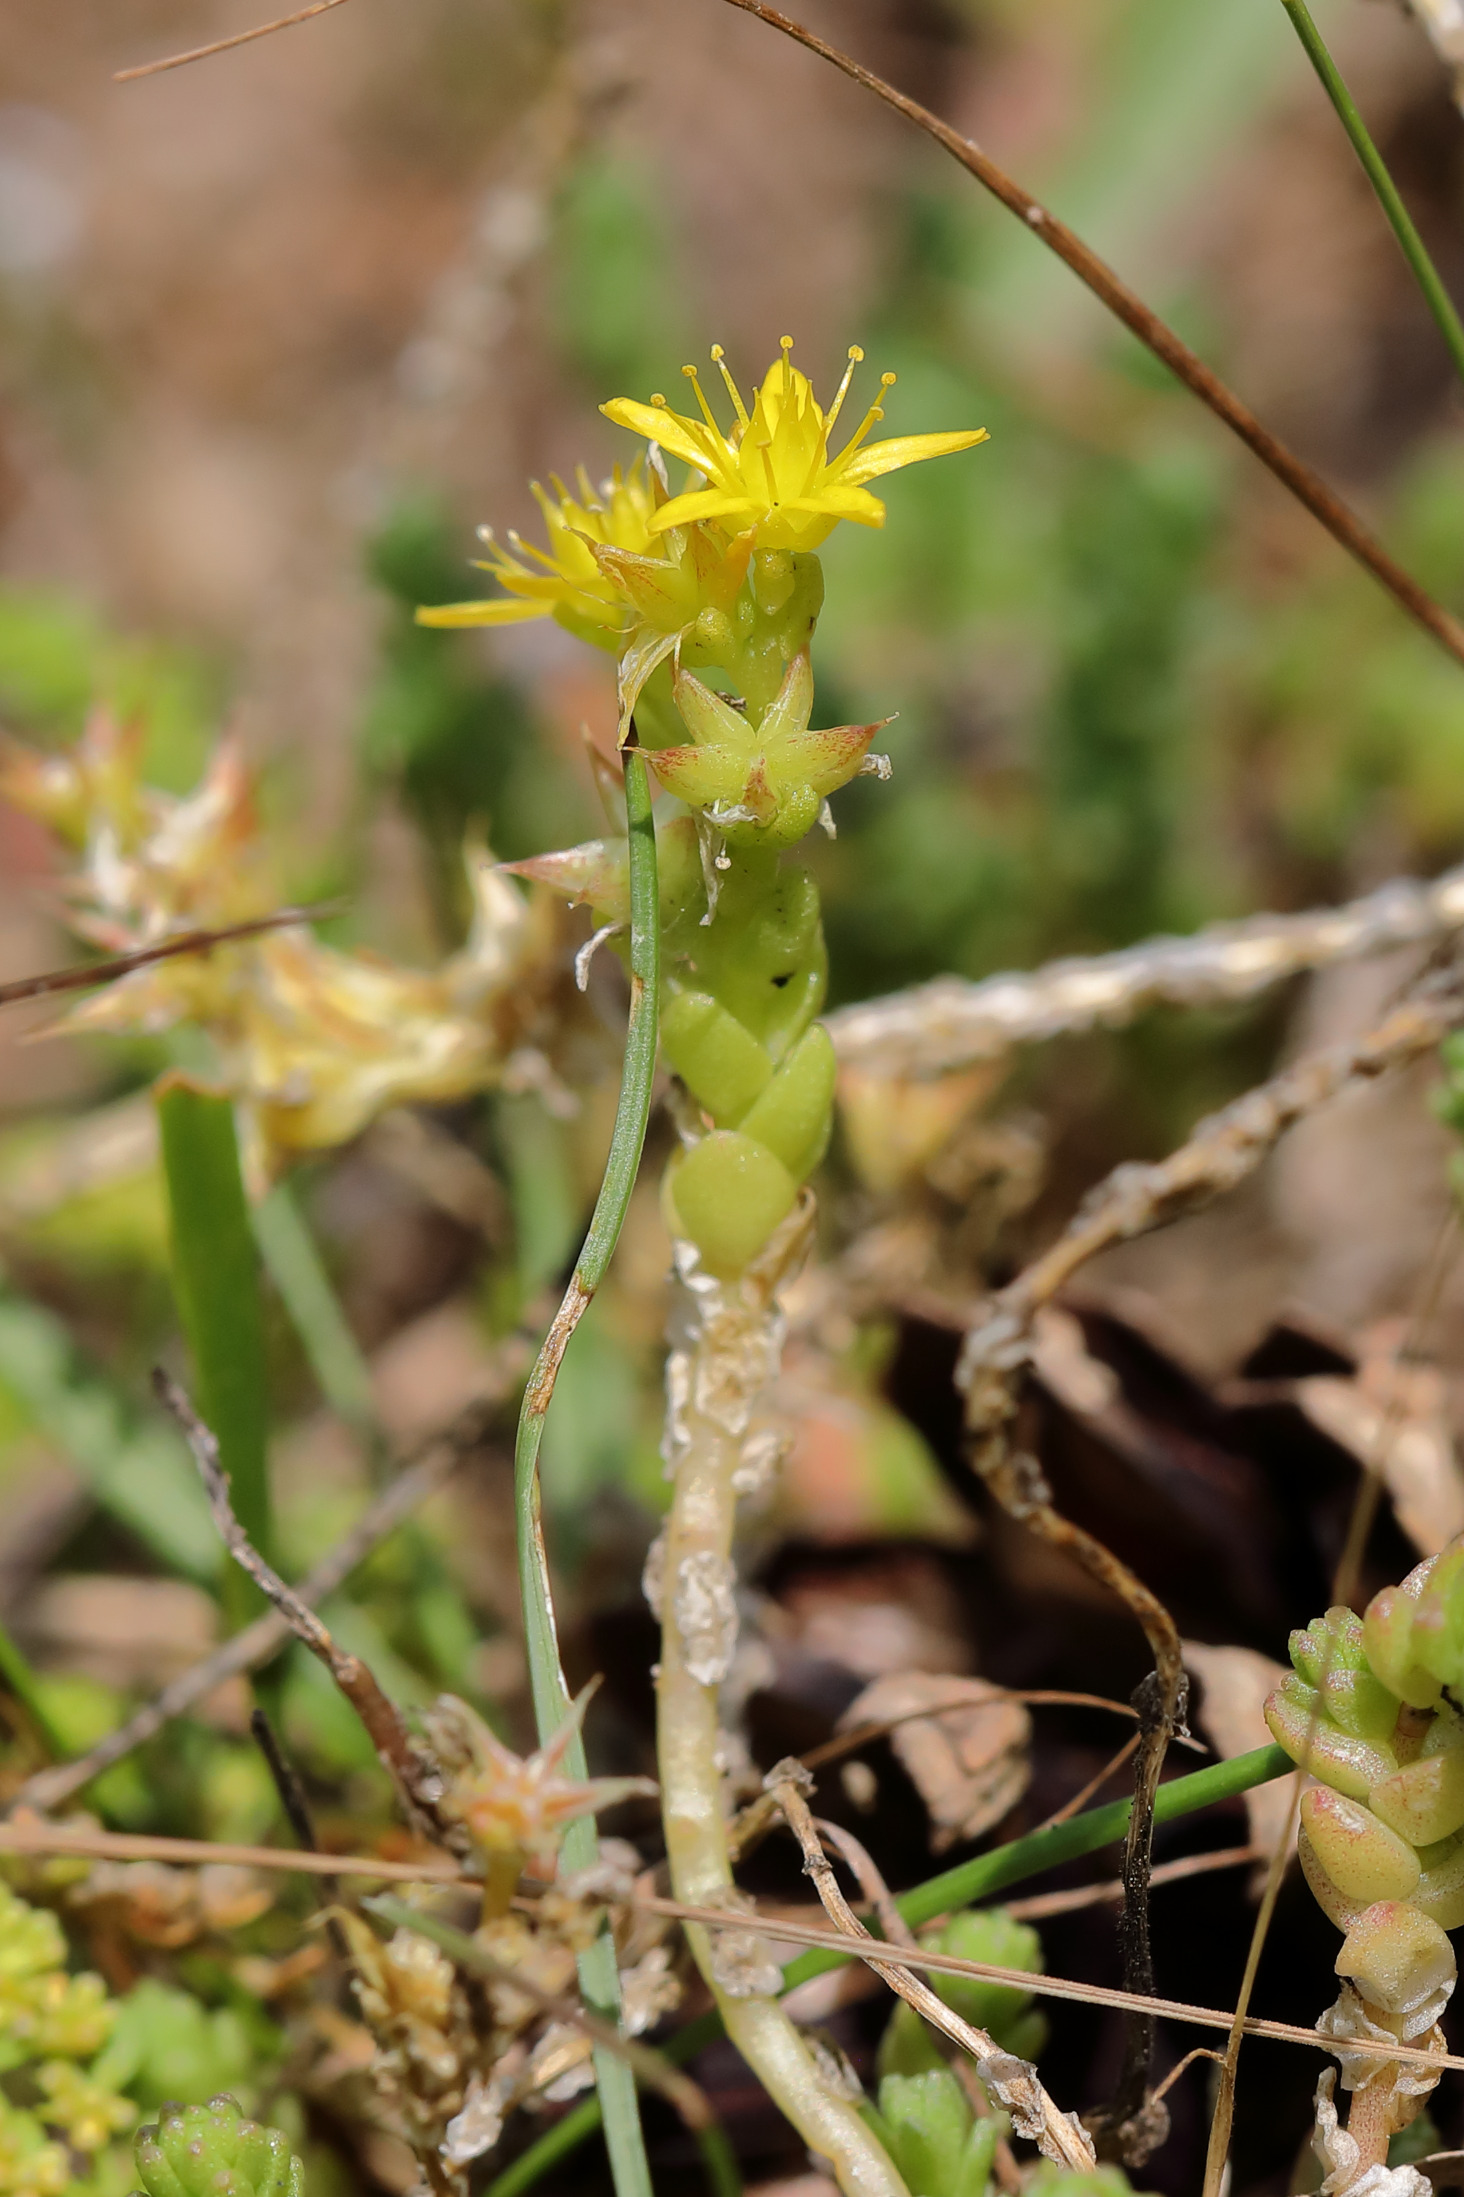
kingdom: Plantae
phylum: Tracheophyta
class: Magnoliopsida
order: Saxifragales
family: Crassulaceae
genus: Sedum
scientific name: Sedum acre
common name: Bidende stenurt
